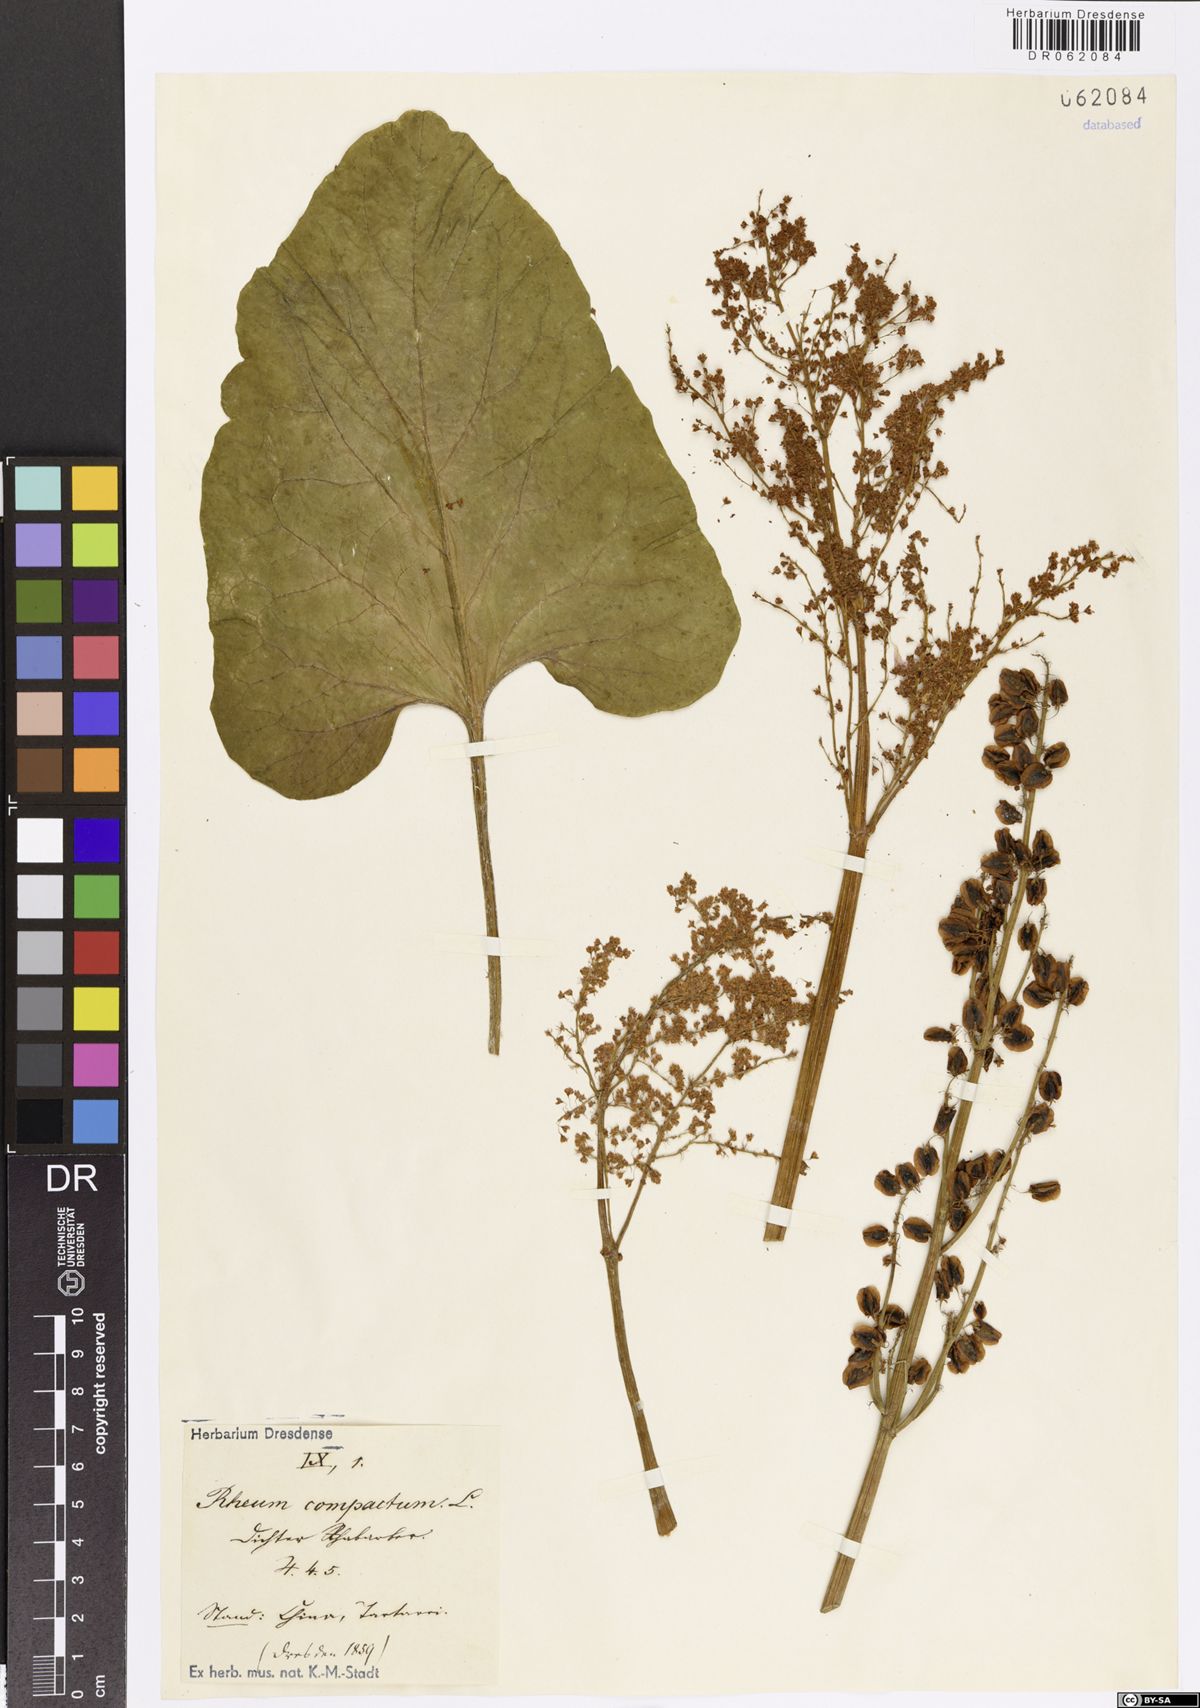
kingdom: Plantae
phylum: Tracheophyta
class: Magnoliopsida
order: Caryophyllales
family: Polygonaceae
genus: Rheum
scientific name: Rheum compactum
